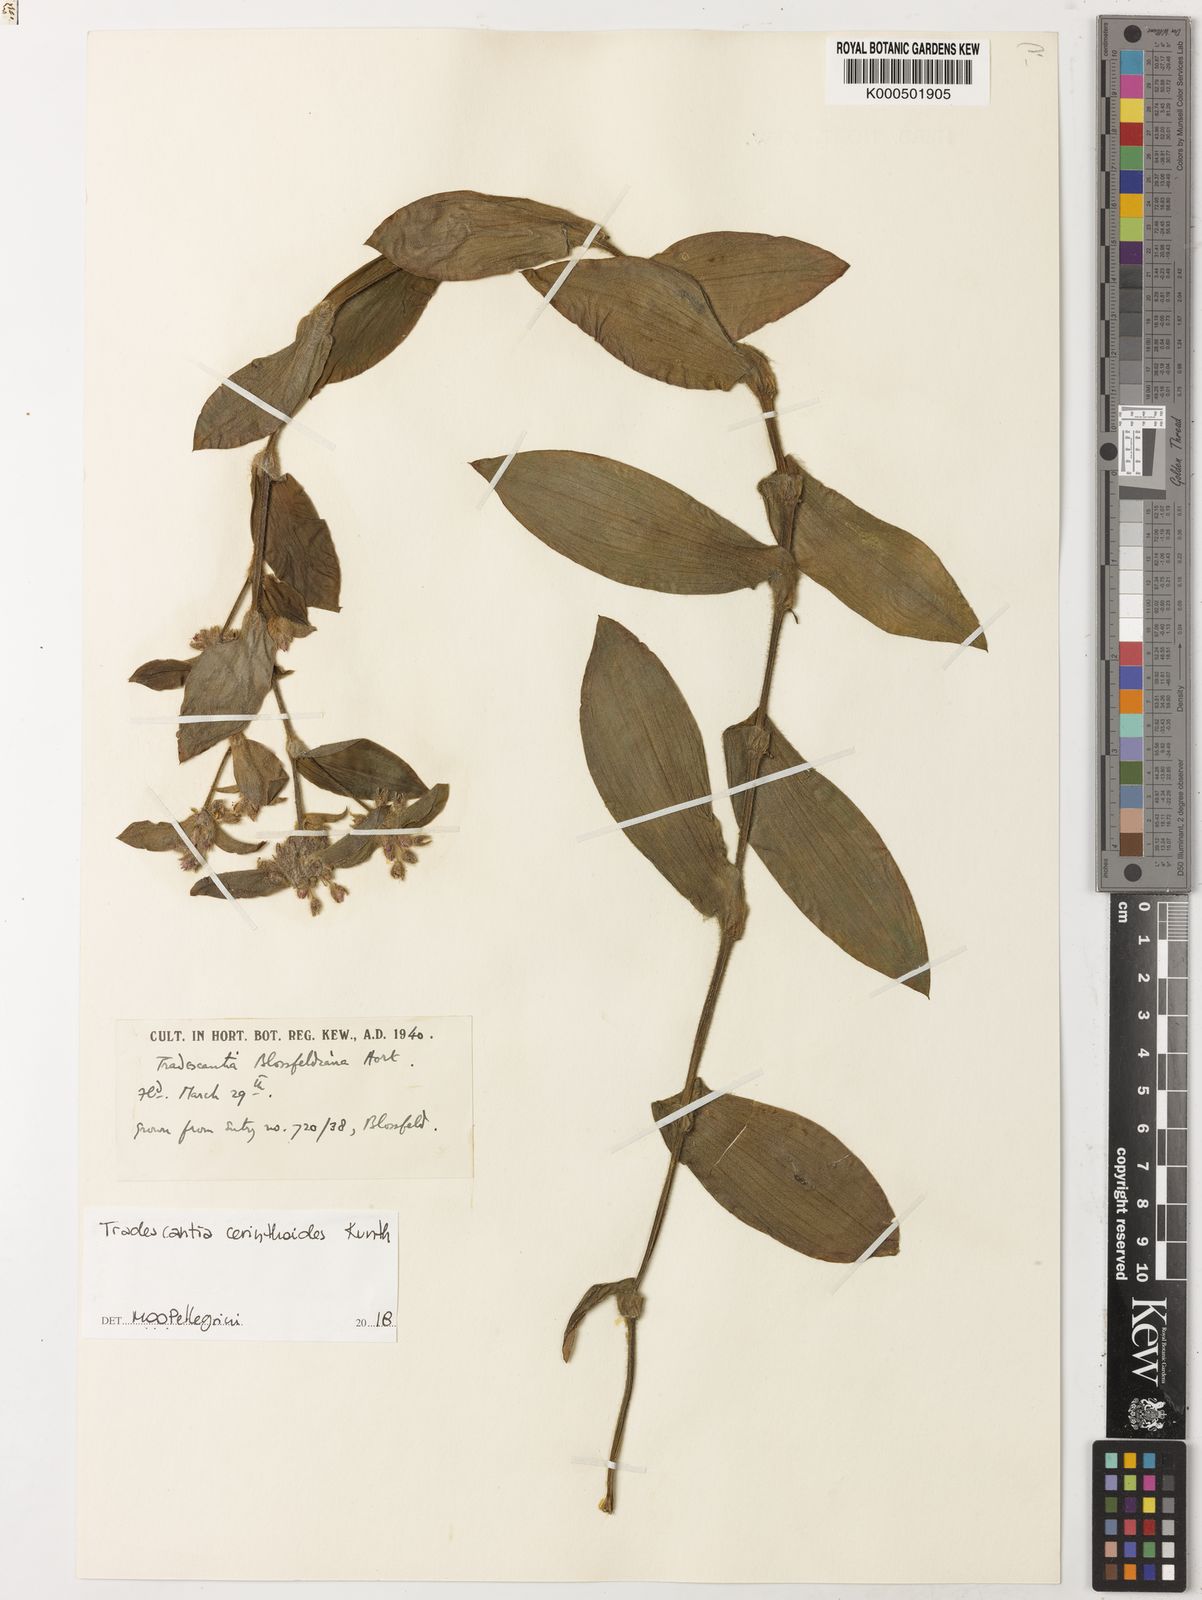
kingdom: Plantae
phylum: Tracheophyta
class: Liliopsida
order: Commelinales
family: Commelinaceae
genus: Tradescantia
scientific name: Tradescantia cerinthoides
